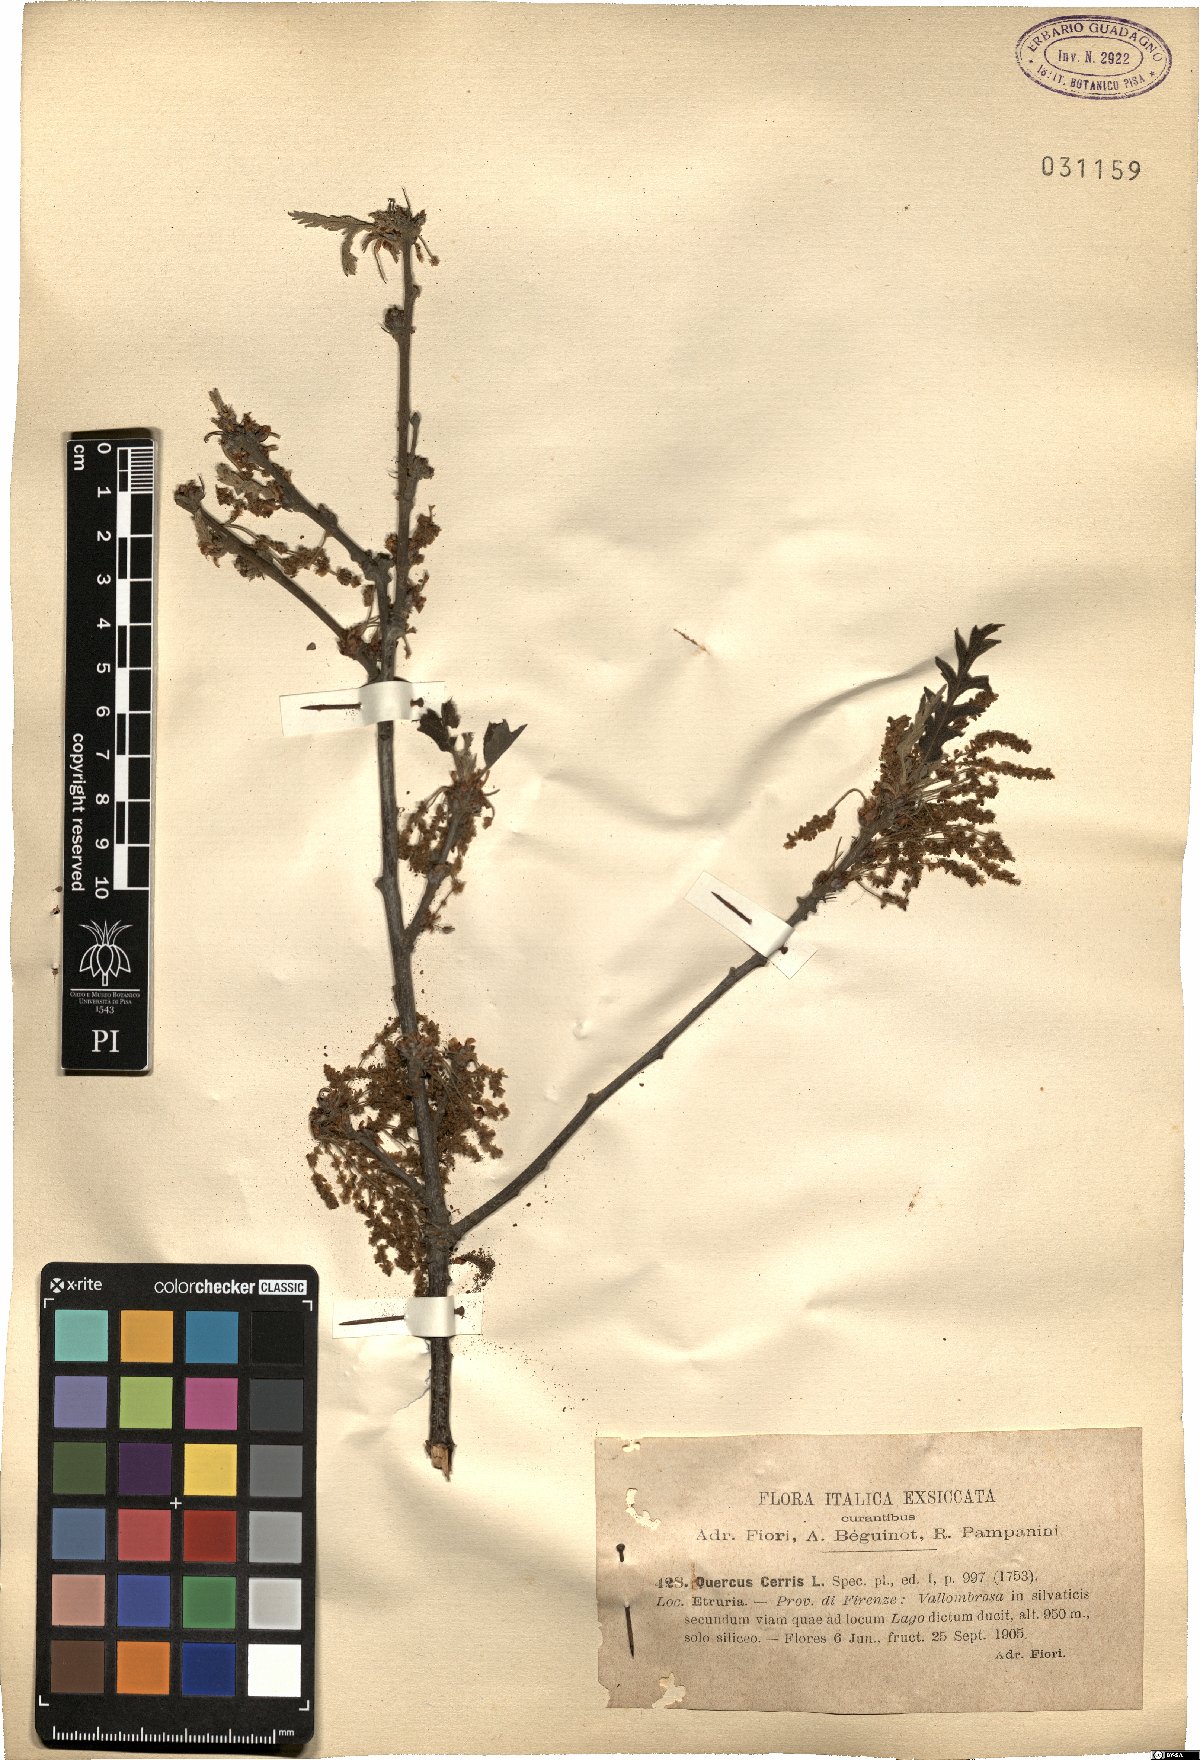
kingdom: Plantae
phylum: Tracheophyta
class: Magnoliopsida
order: Fagales
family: Fagaceae
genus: Quercus
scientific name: Quercus cerris
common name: Turkey oak
